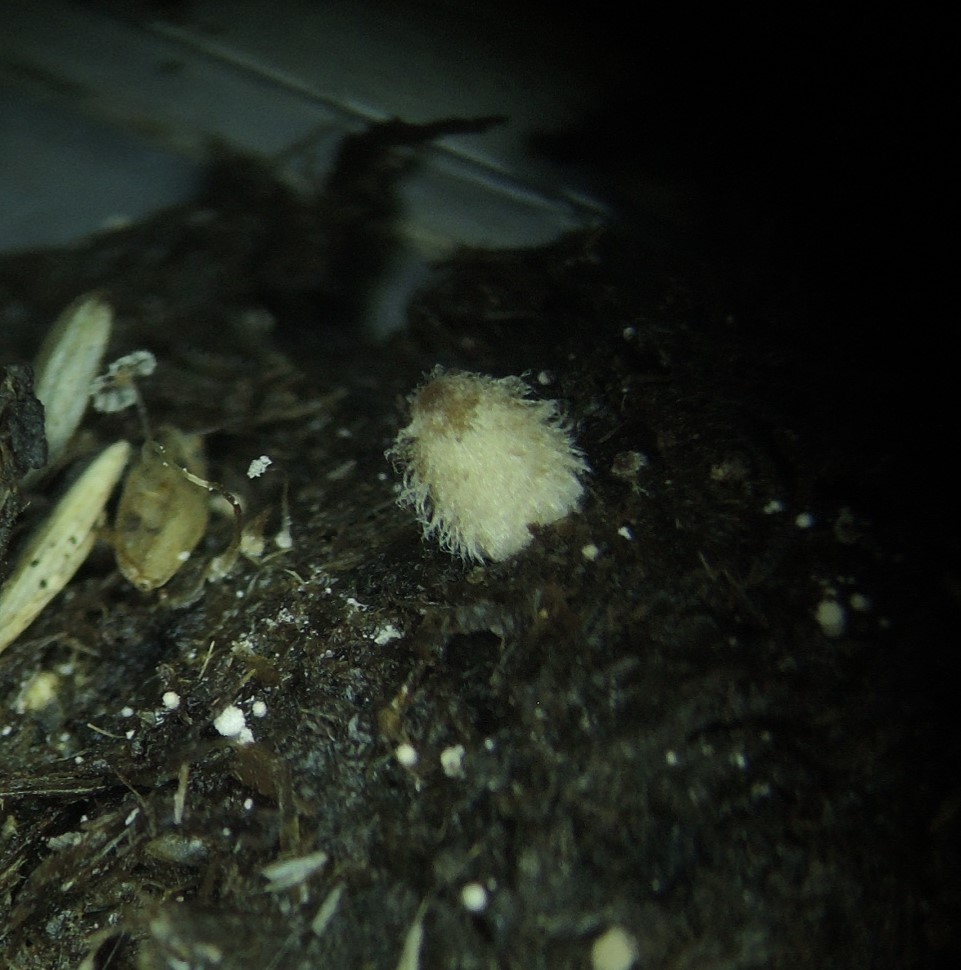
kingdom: Fungi
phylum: Basidiomycota
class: Agaricomycetes
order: Agaricales
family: Psathyrellaceae
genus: Coprinopsis
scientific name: Coprinopsis
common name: blækhat
